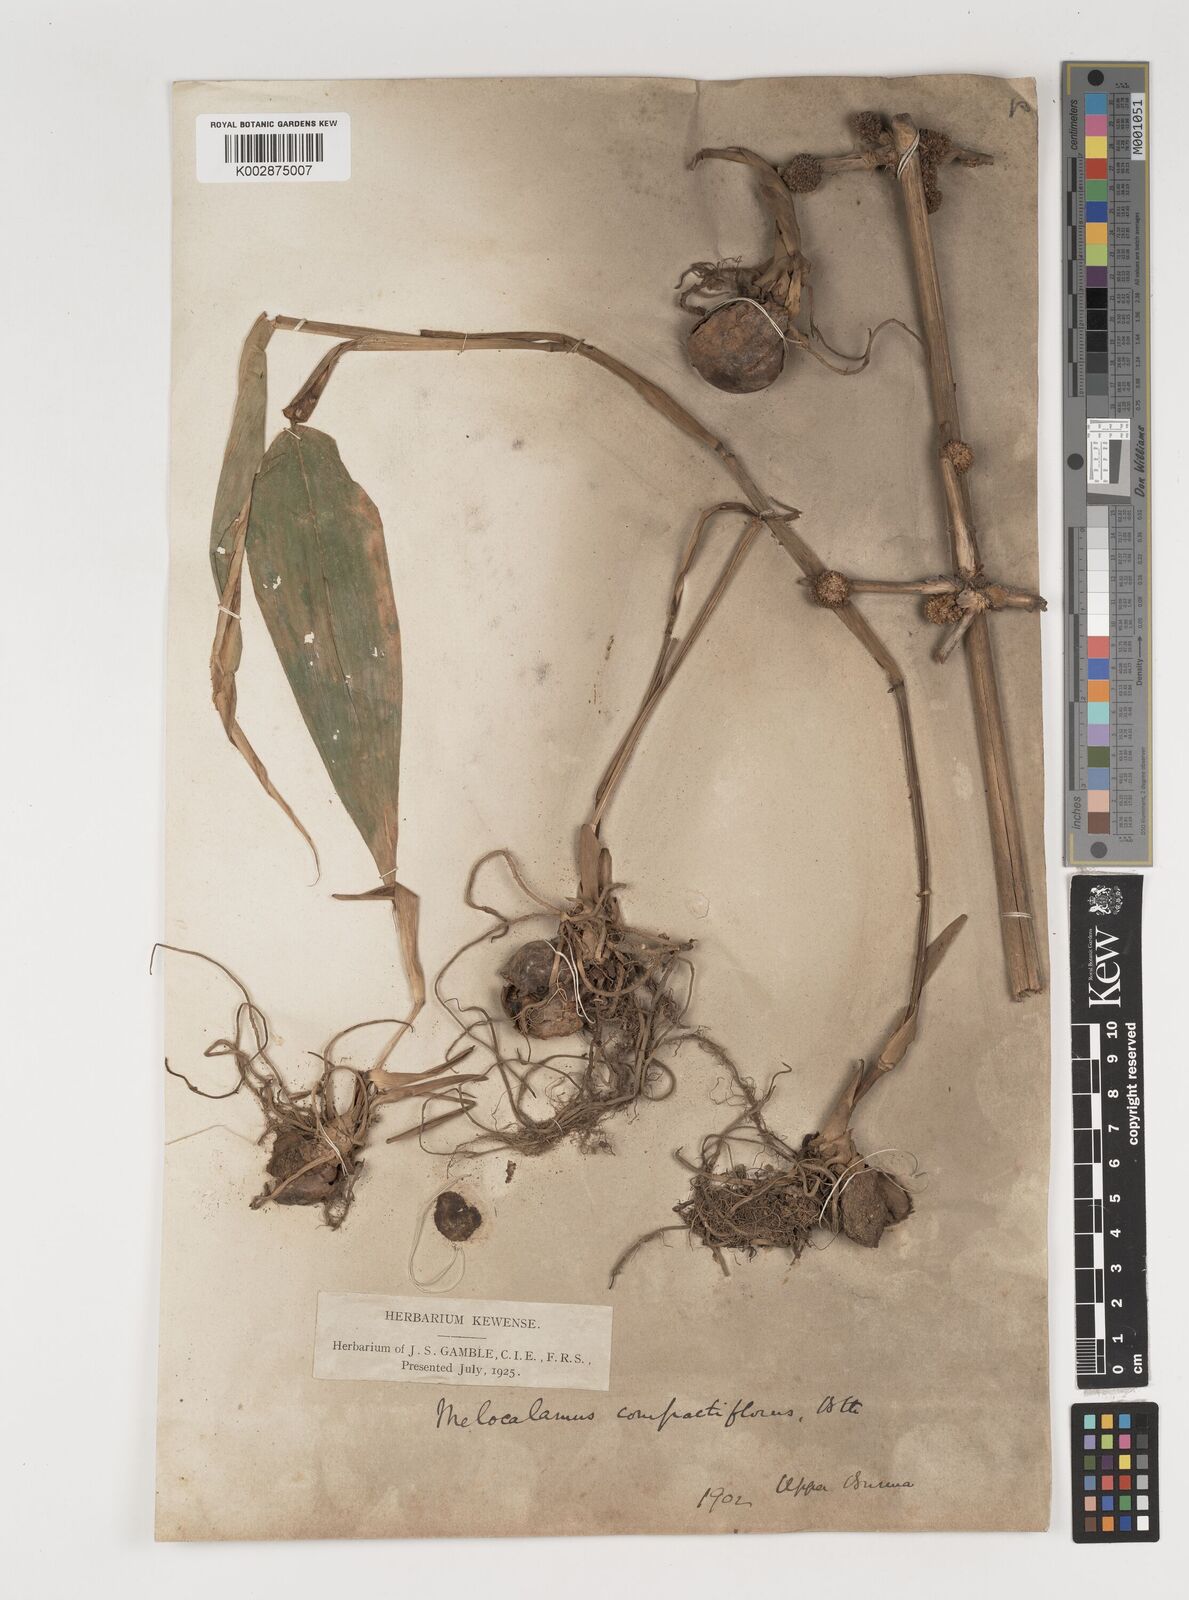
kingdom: Plantae
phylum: Tracheophyta
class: Liliopsida
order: Poales
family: Poaceae
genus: Melocalamus
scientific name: Melocalamus compactiflorus
